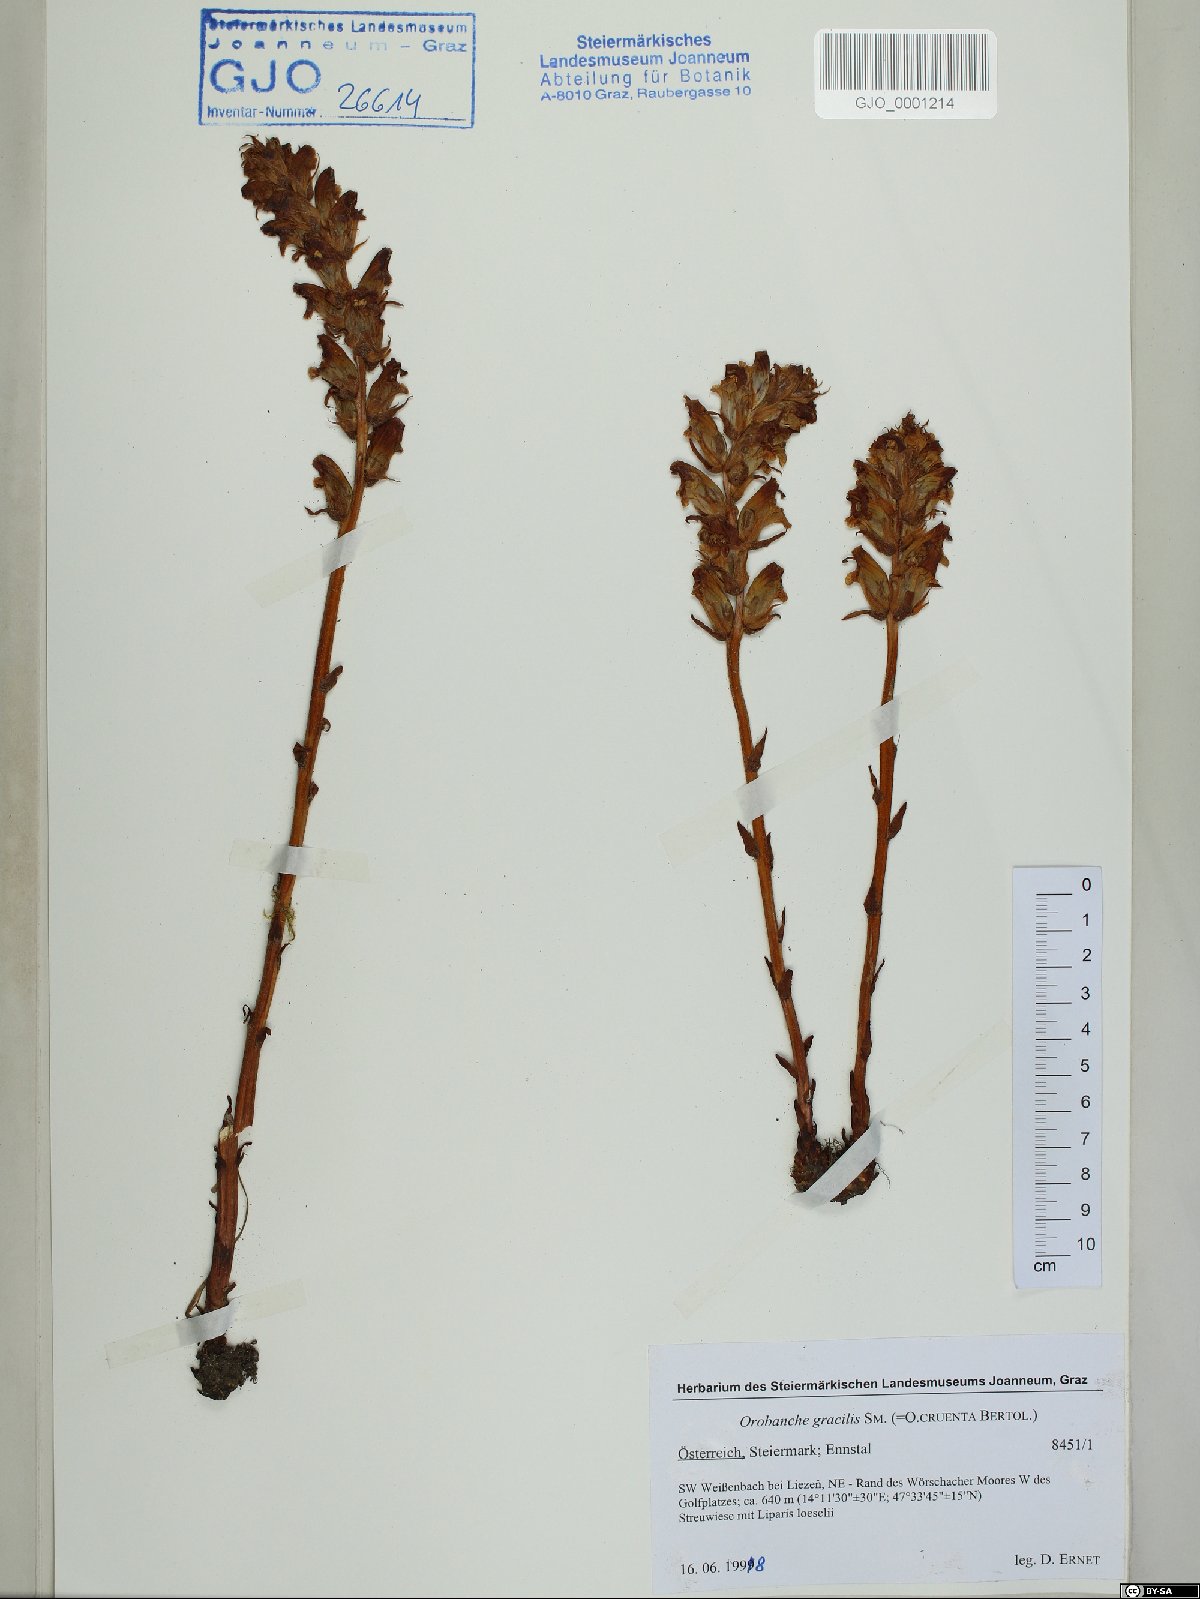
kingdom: Plantae
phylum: Tracheophyta
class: Magnoliopsida
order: Lamiales
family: Orobanchaceae
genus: Orobanche
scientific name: Orobanche gracilis
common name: Slender broomrape
